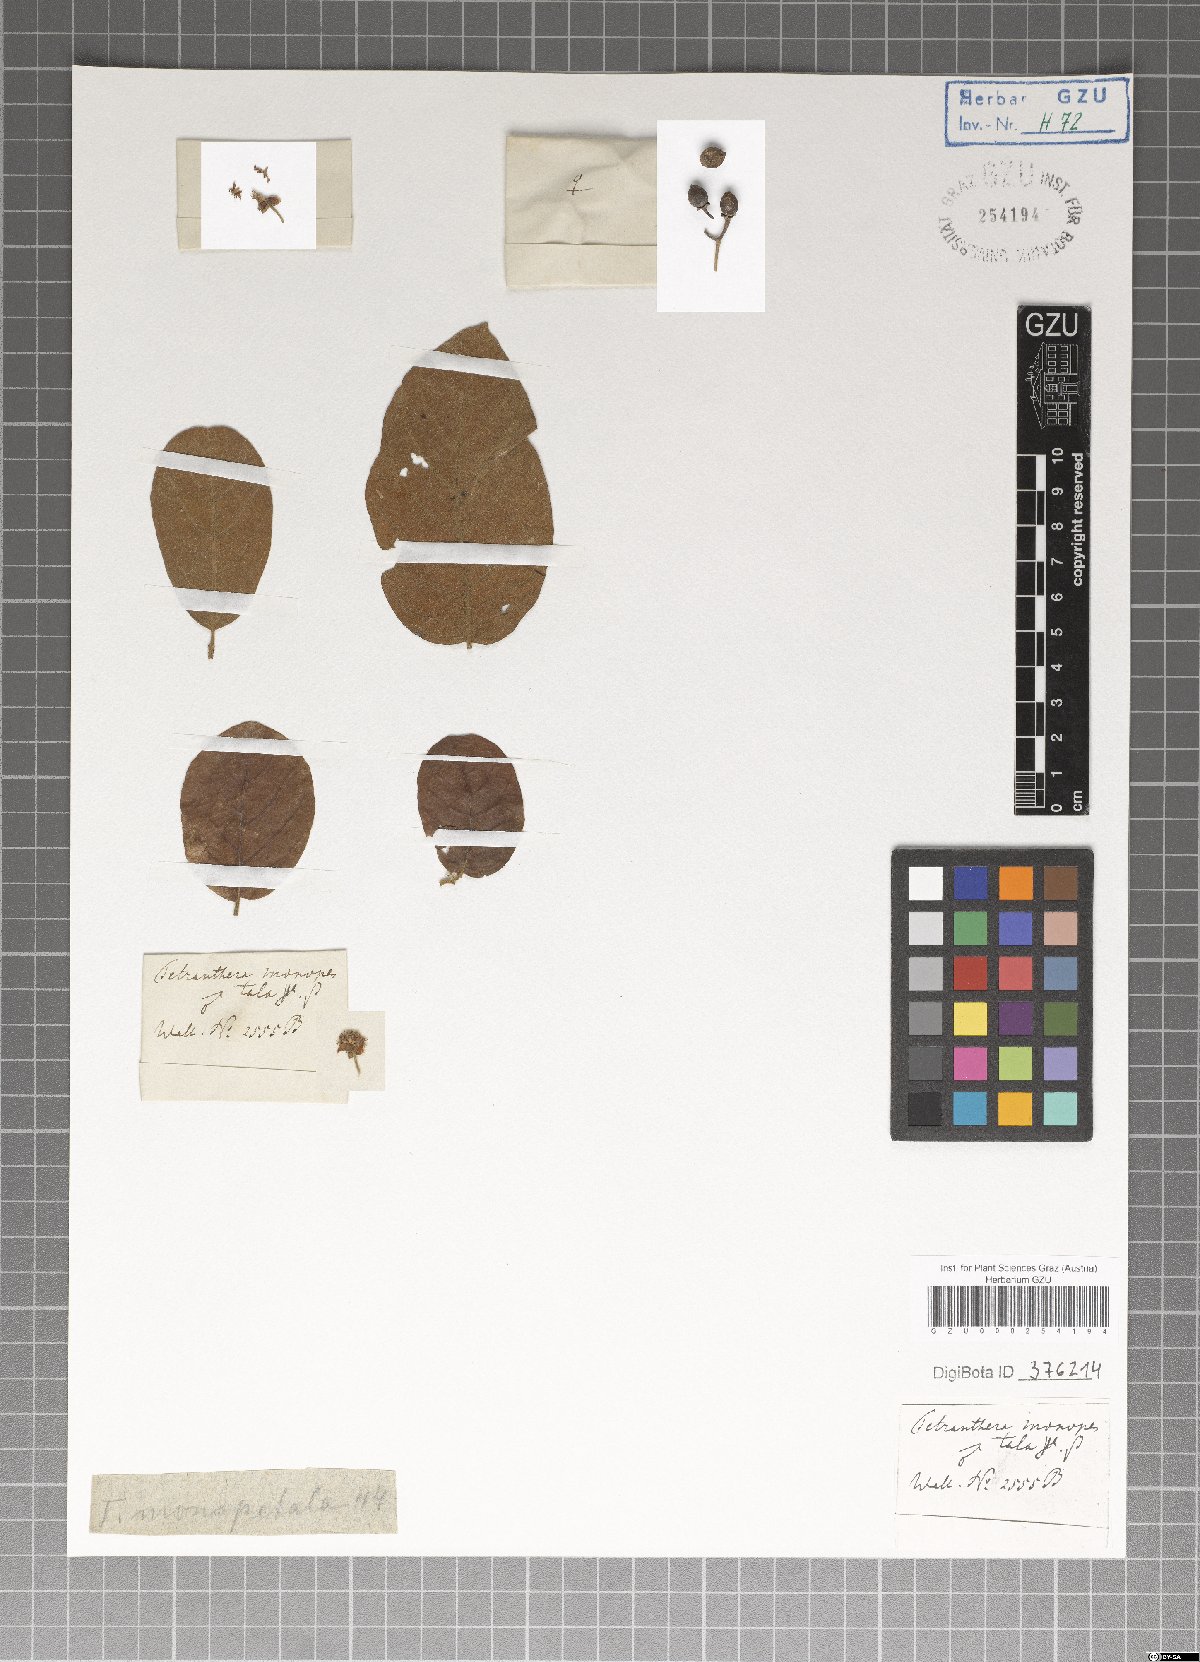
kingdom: Plantae
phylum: Tracheophyta
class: Magnoliopsida
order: Laurales
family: Lauraceae
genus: Litsea
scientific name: Litsea monopetala
